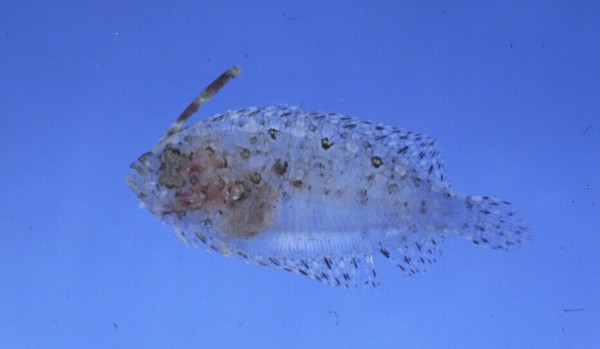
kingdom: Animalia
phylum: Chordata
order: Pleuronectiformes
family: Bothidae
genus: Asterorhombus
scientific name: Asterorhombus filifer
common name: Longlure flounder
